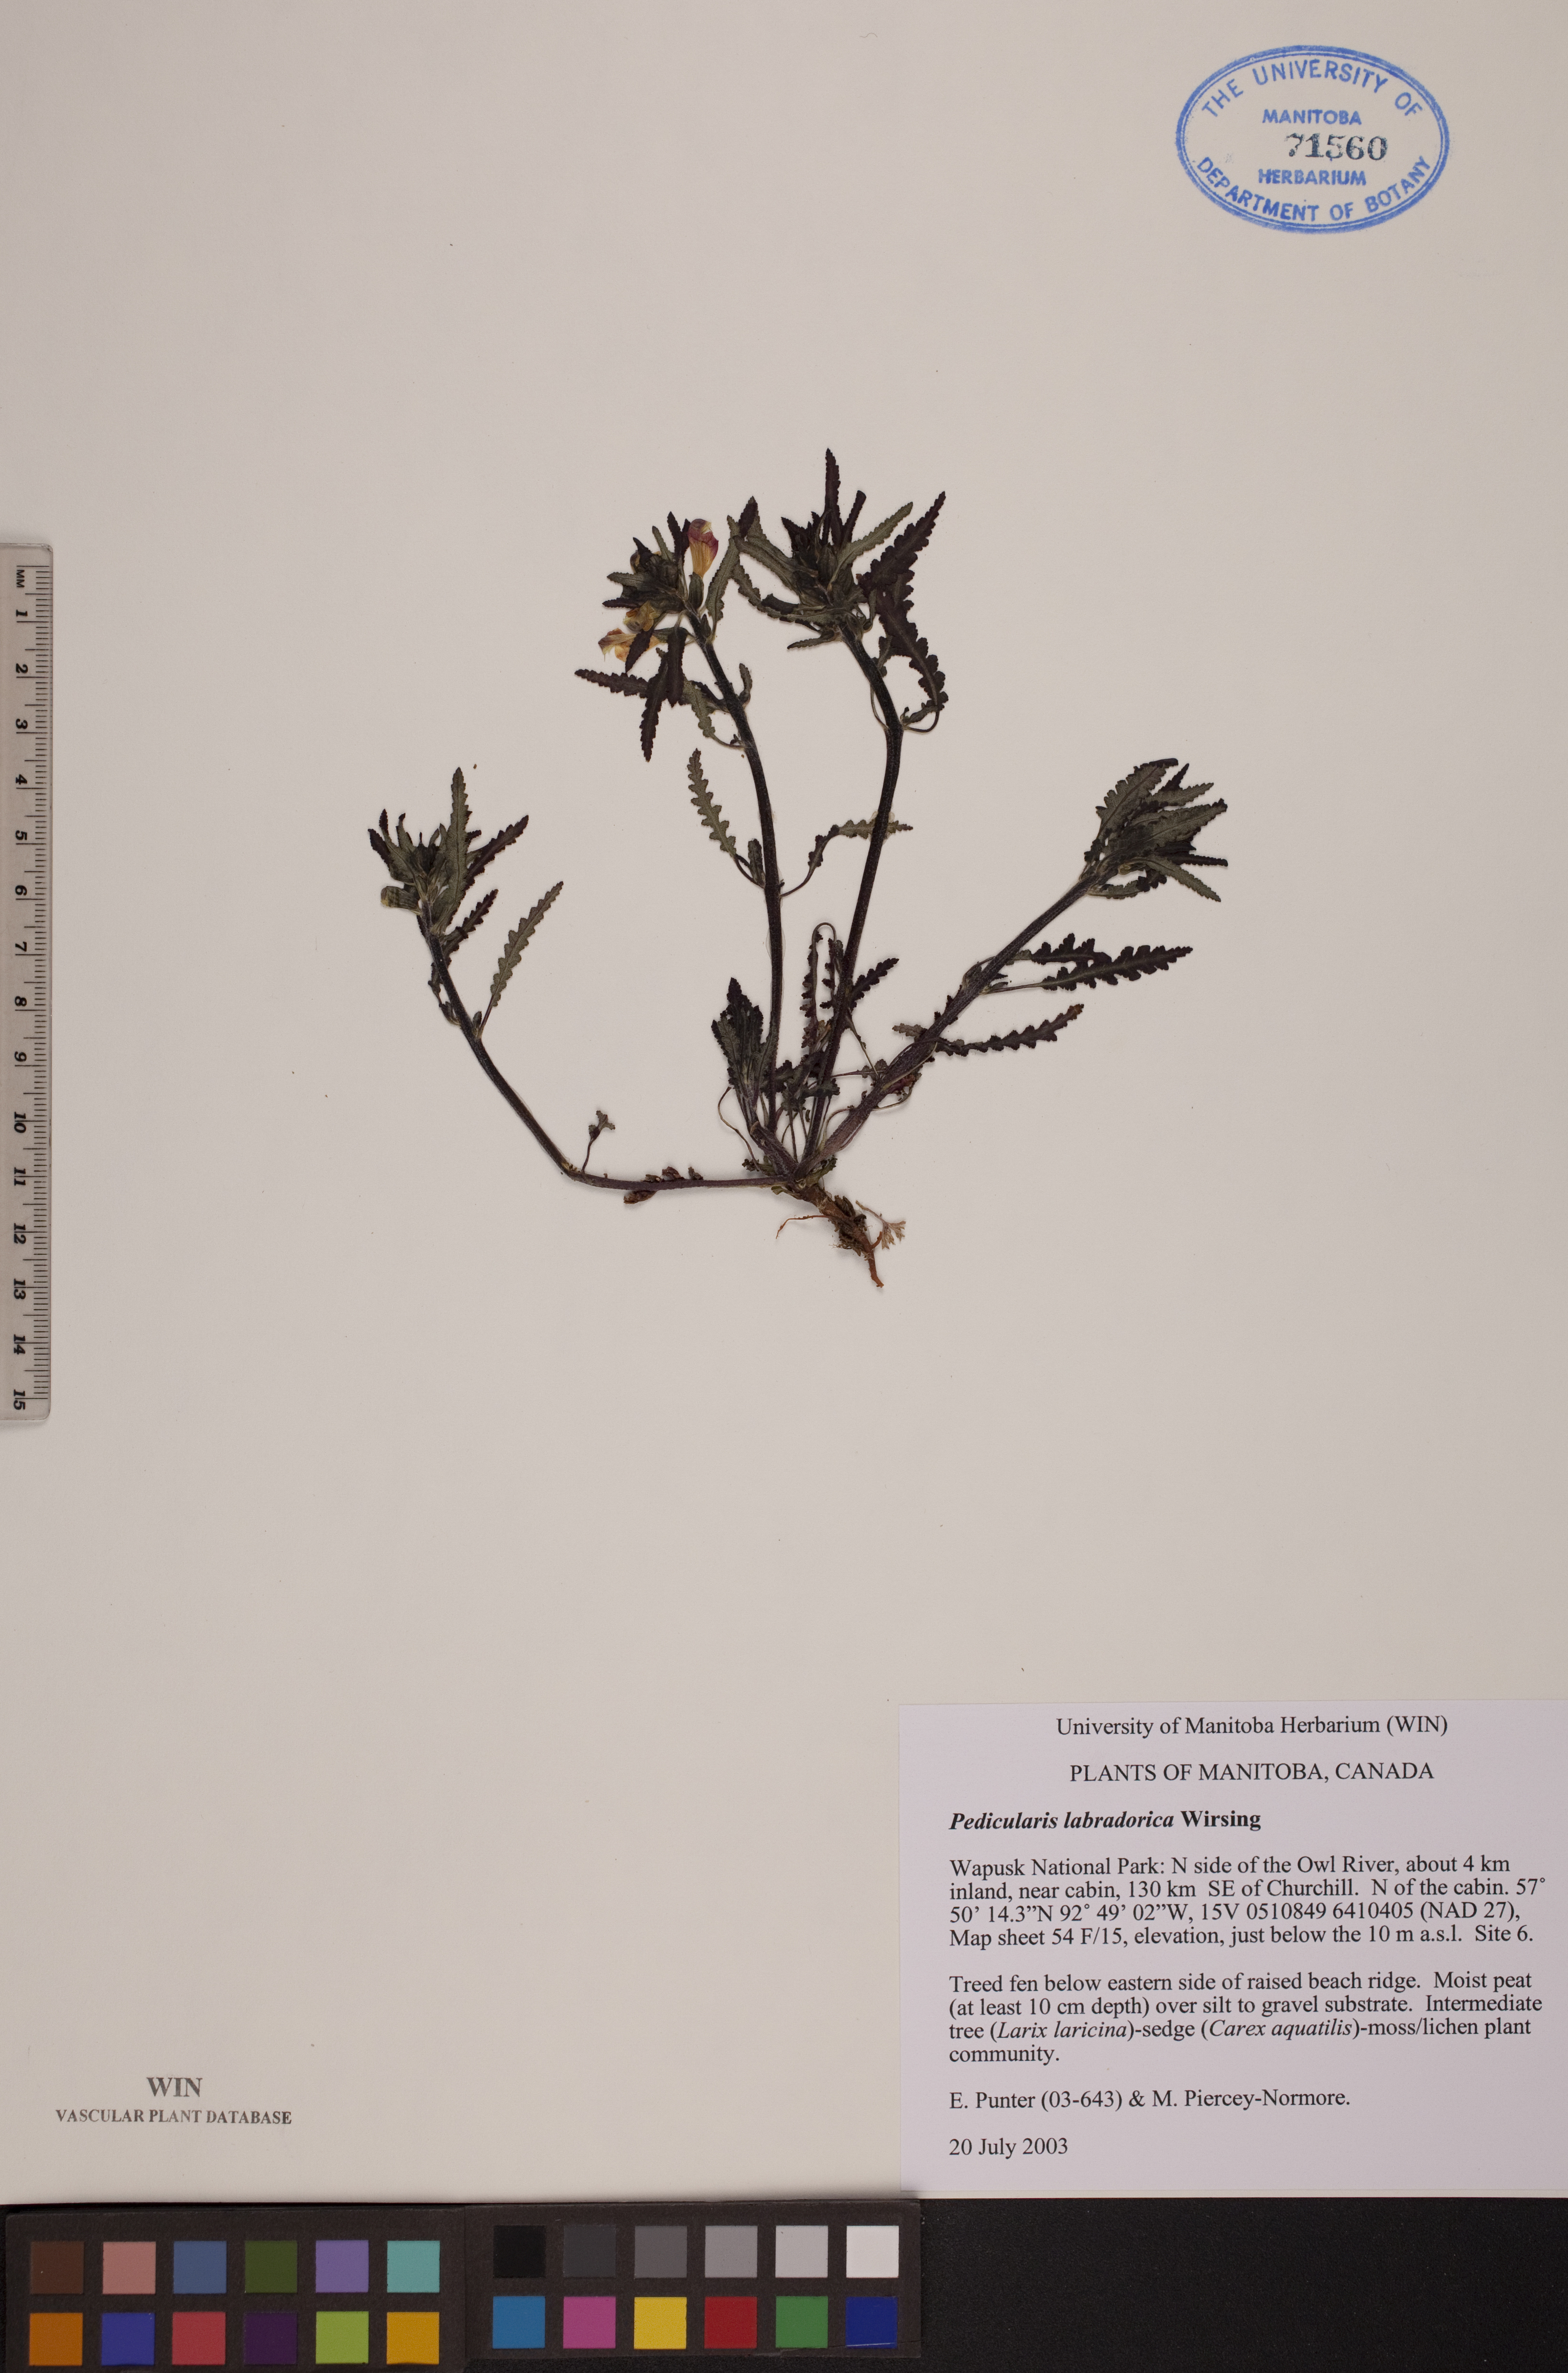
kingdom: Plantae
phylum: Tracheophyta
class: Magnoliopsida
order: Lamiales
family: Orobanchaceae
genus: Pedicularis
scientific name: Pedicularis labradorica
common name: Labrador lousewort
